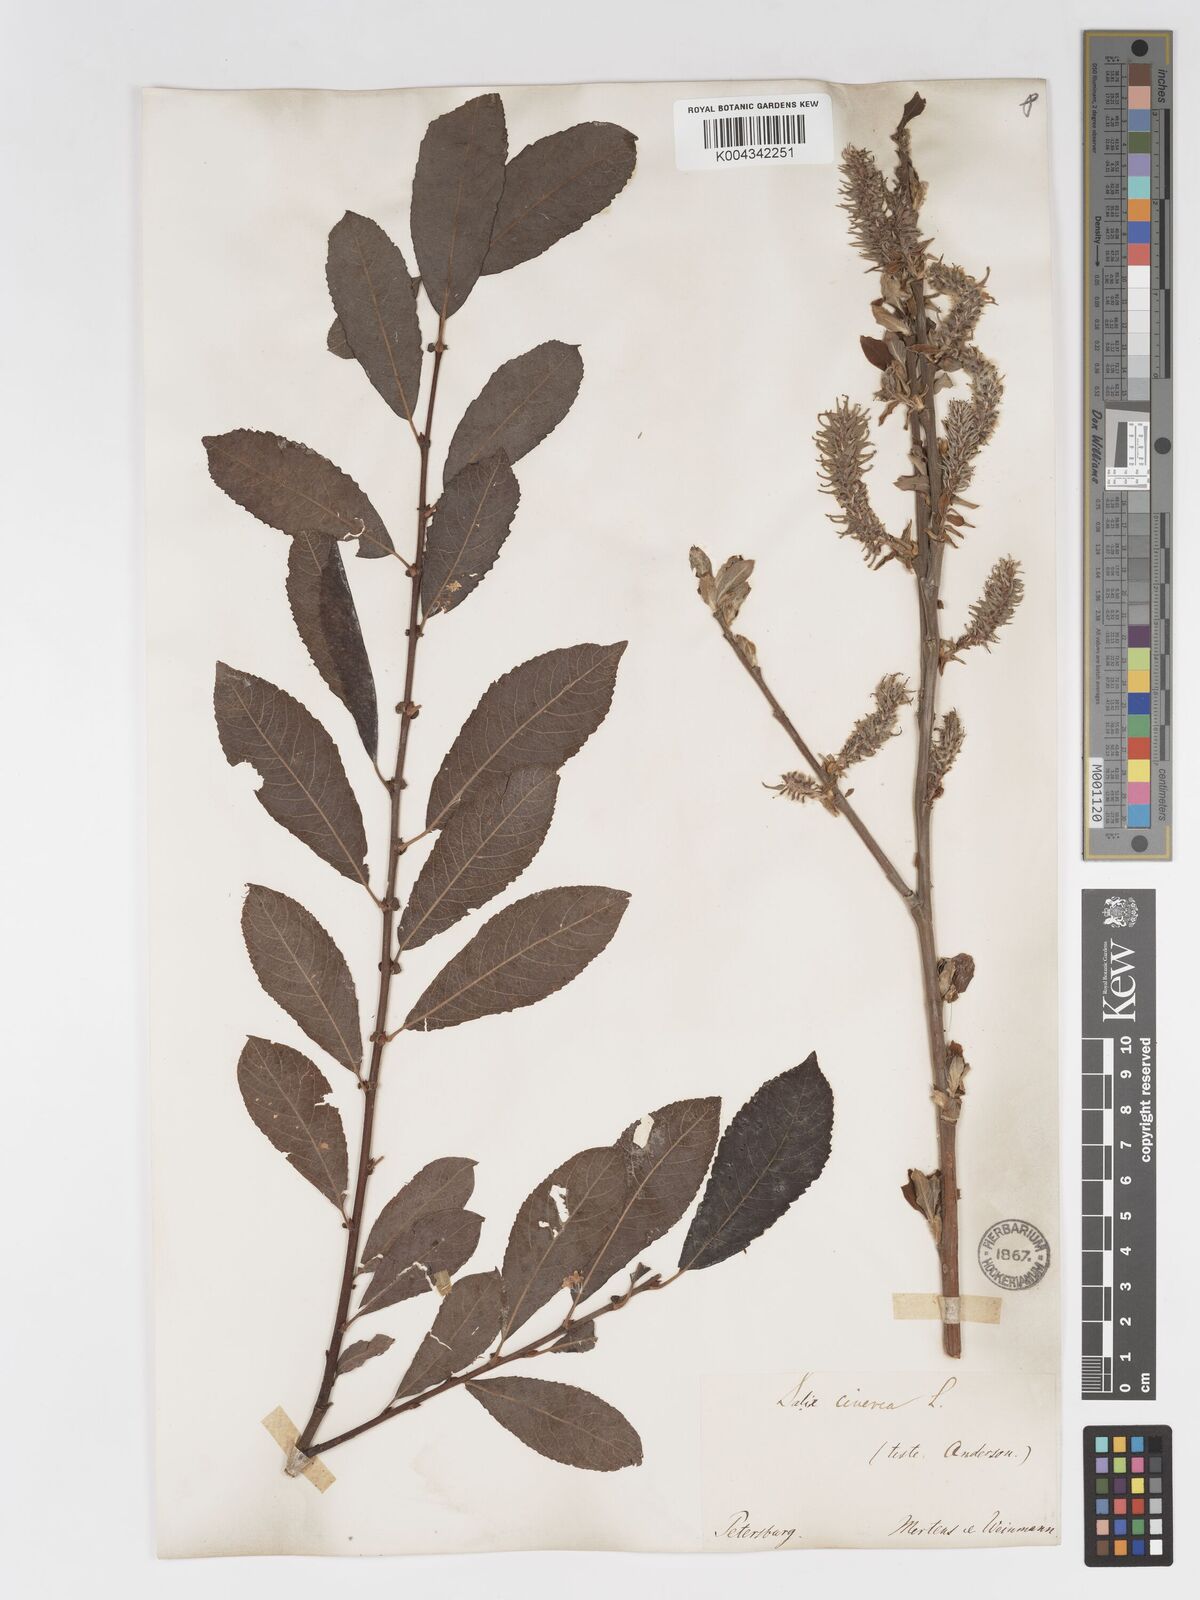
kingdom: Plantae
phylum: Tracheophyta
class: Magnoliopsida
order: Malpighiales
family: Salicaceae
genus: Salix
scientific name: Salix
